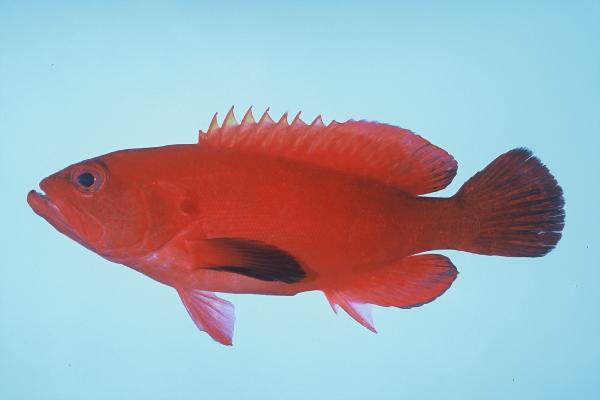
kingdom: Animalia
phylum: Chordata
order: Perciformes
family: Serranidae
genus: Cephalopholis
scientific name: Cephalopholis nigripinnis
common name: Duskyfin hind
